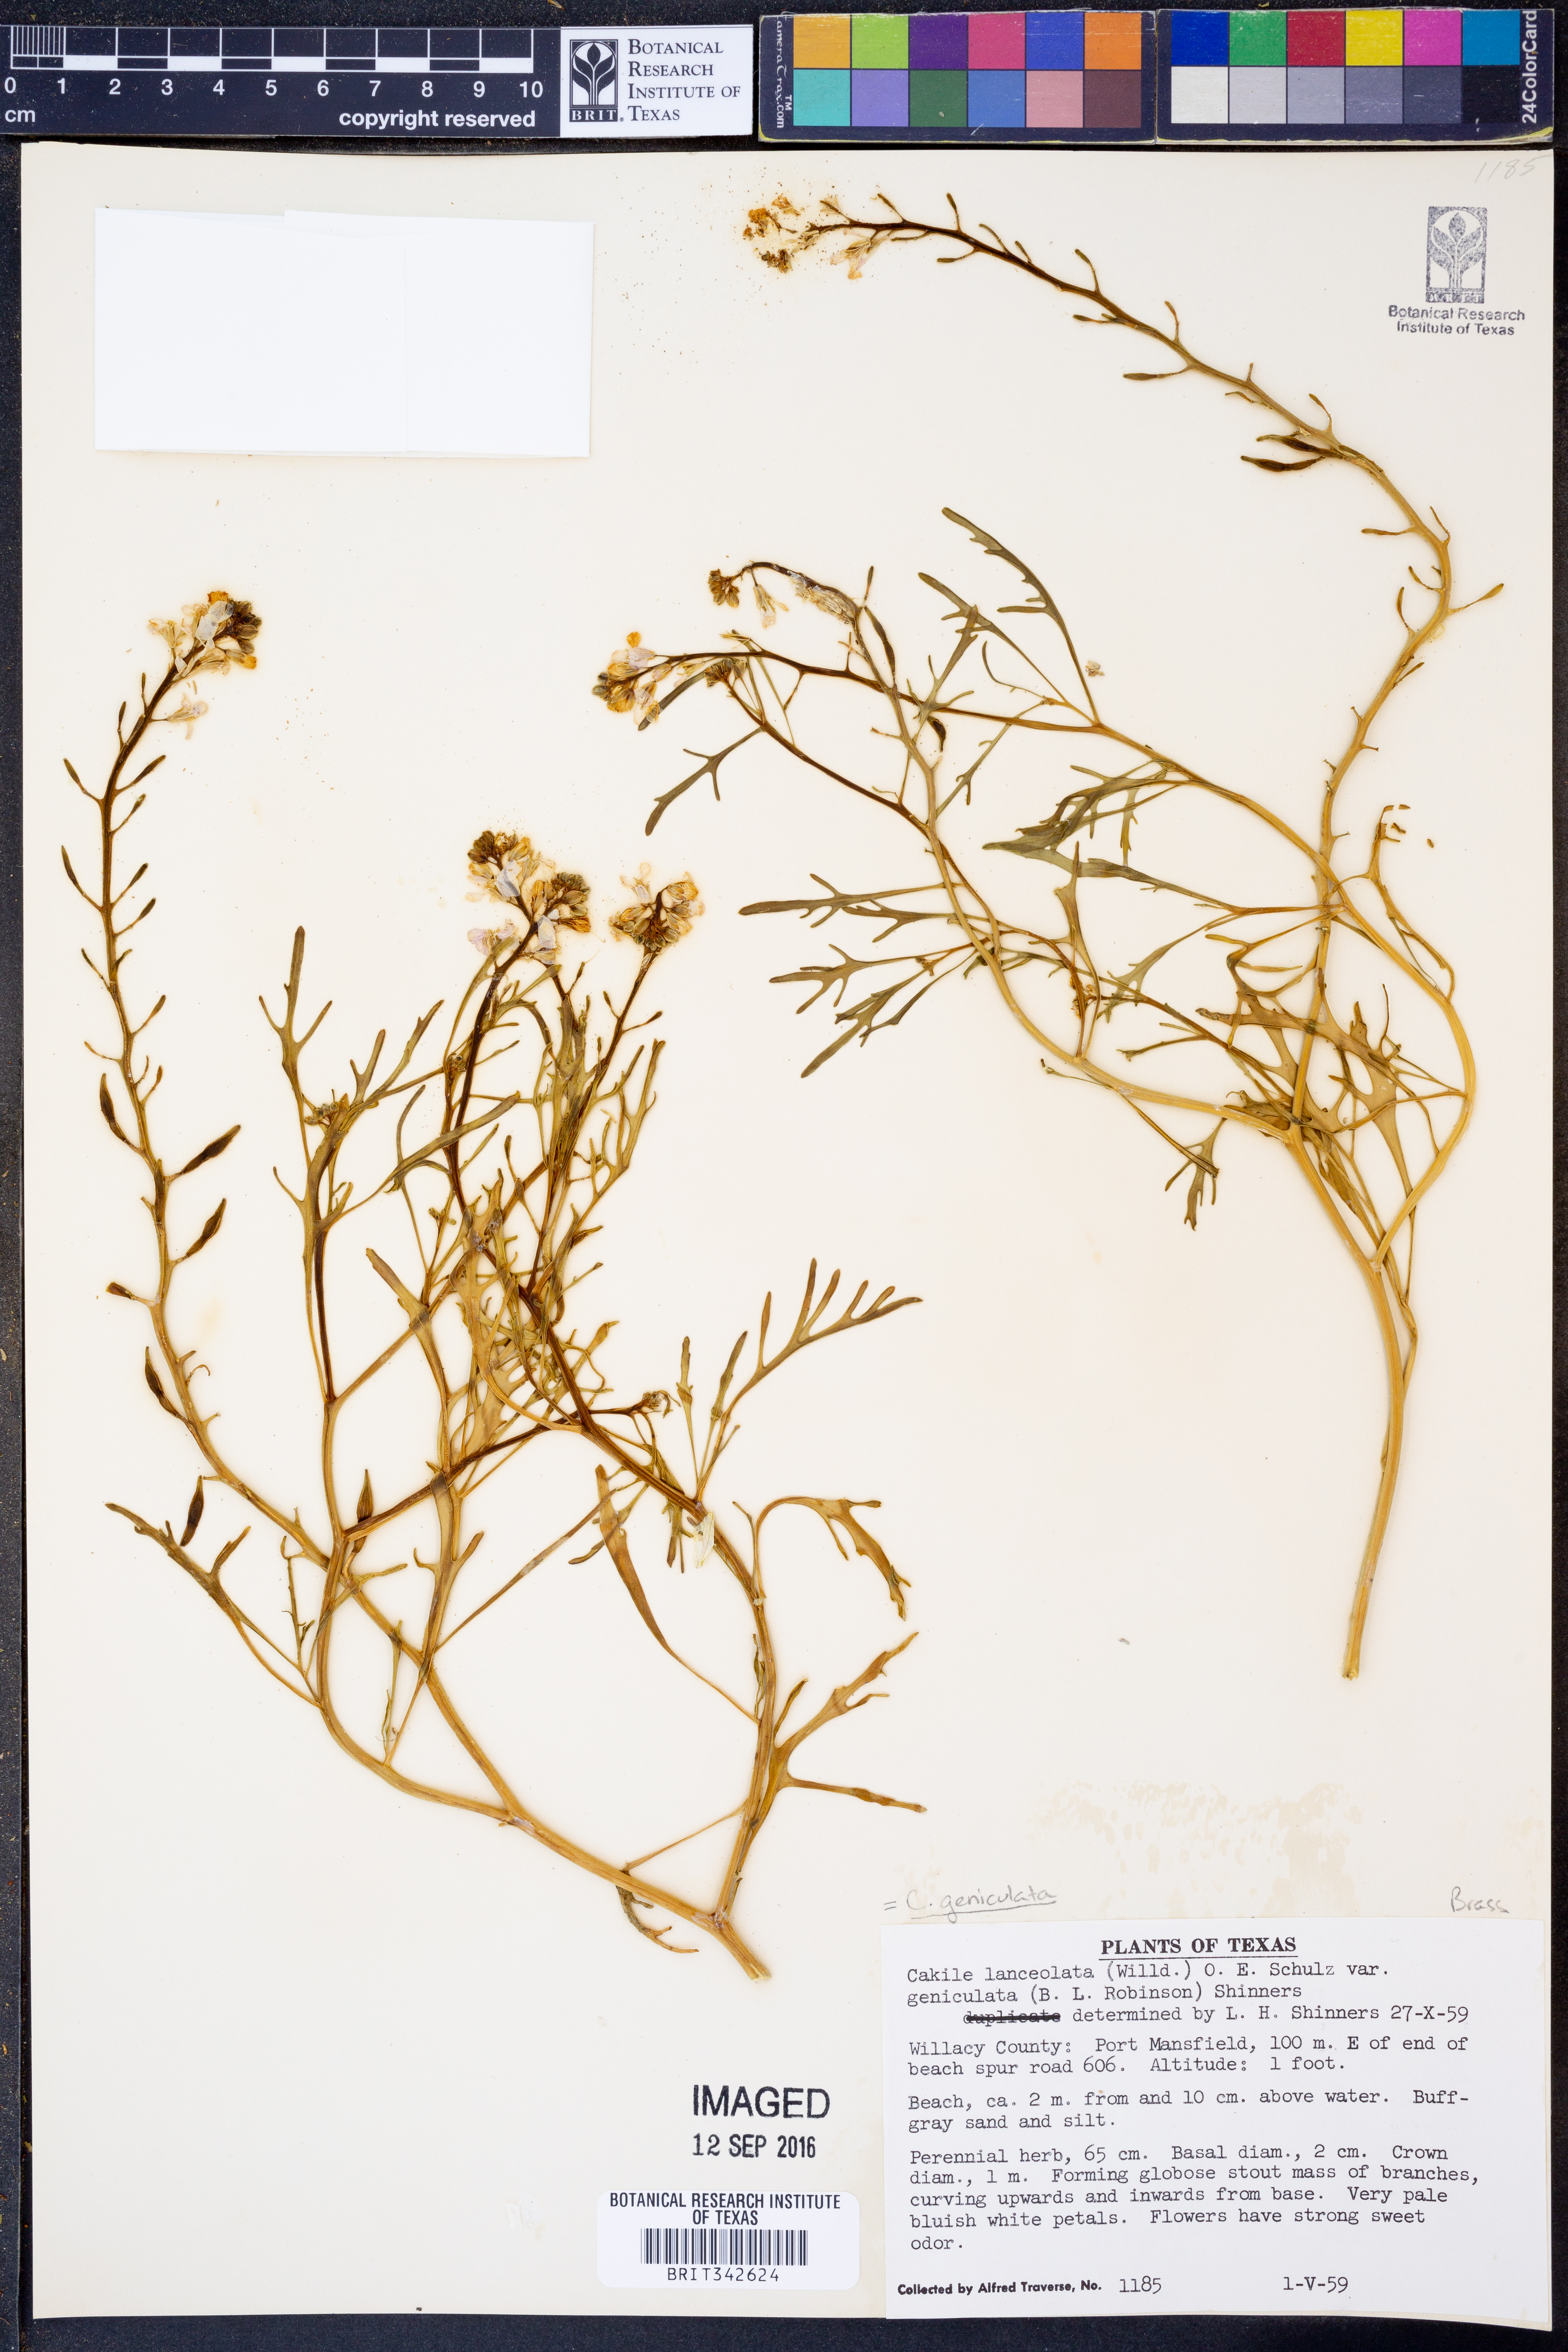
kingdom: Plantae
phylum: Tracheophyta
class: Magnoliopsida
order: Brassicales
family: Brassicaceae
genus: Cakile
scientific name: Cakile geniculata
